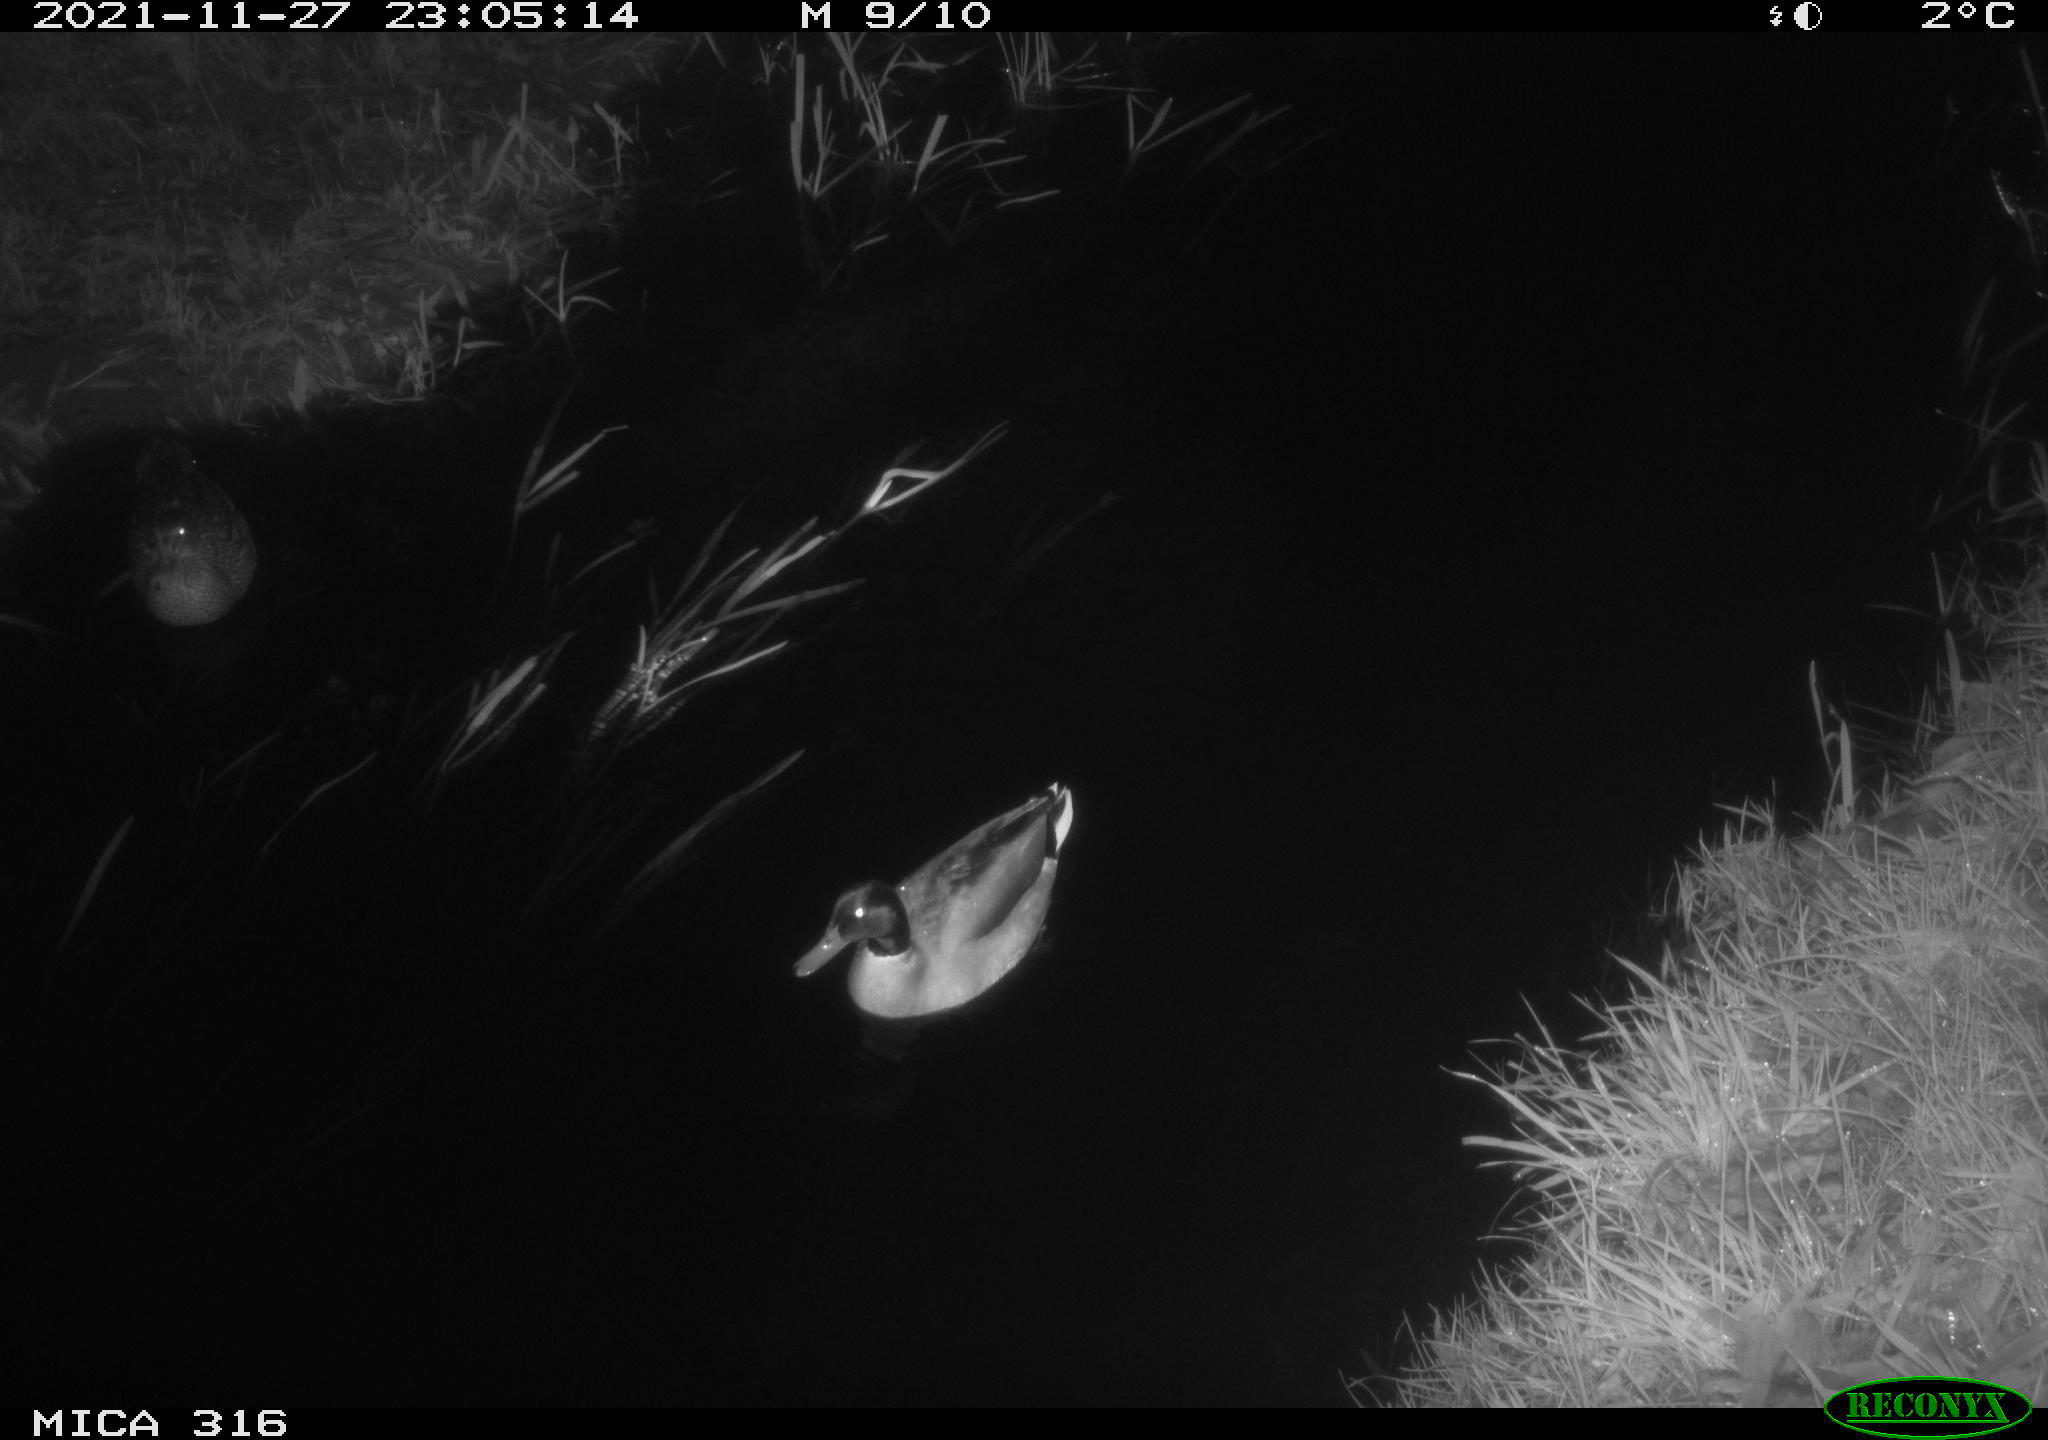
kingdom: Animalia
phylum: Chordata
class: Aves
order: Anseriformes
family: Anatidae
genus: Anas
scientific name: Anas platyrhynchos
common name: Mallard
